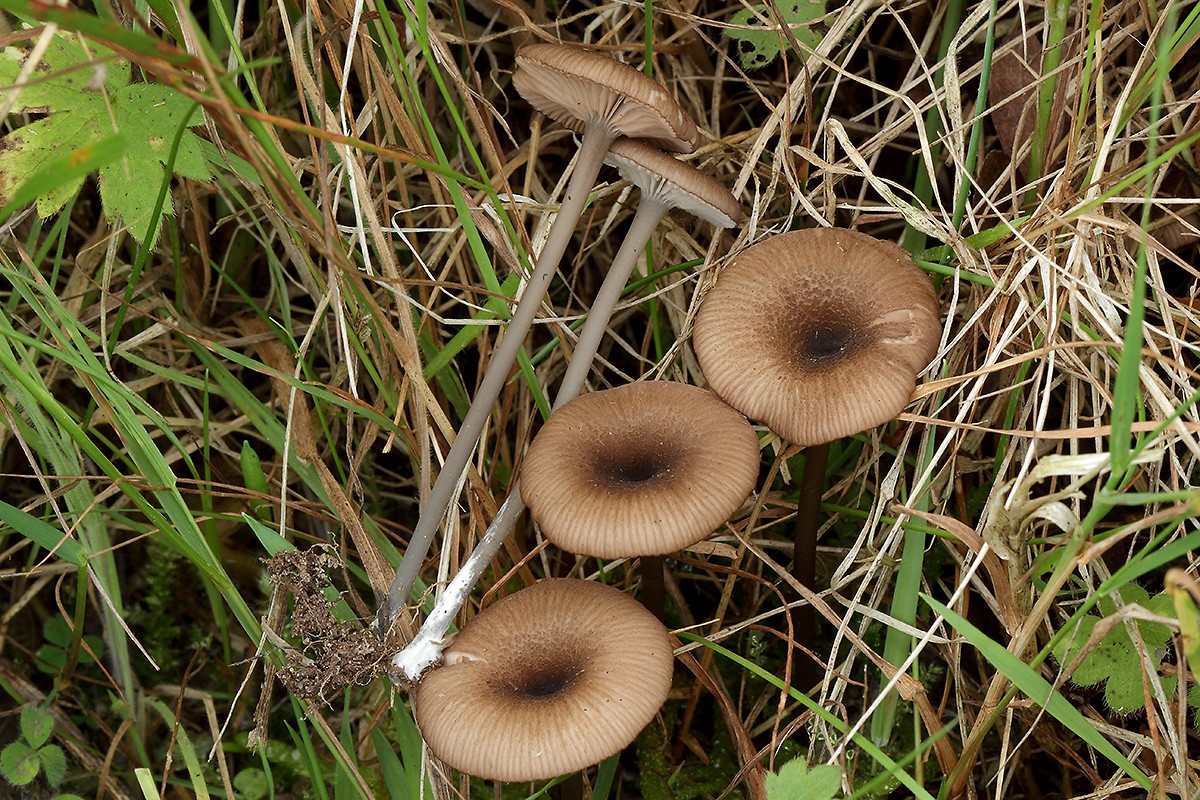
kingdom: Fungi
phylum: Basidiomycota
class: Agaricomycetes
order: Agaricales
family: Entolomataceae
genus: Entoloma
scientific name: Entoloma allospermum
